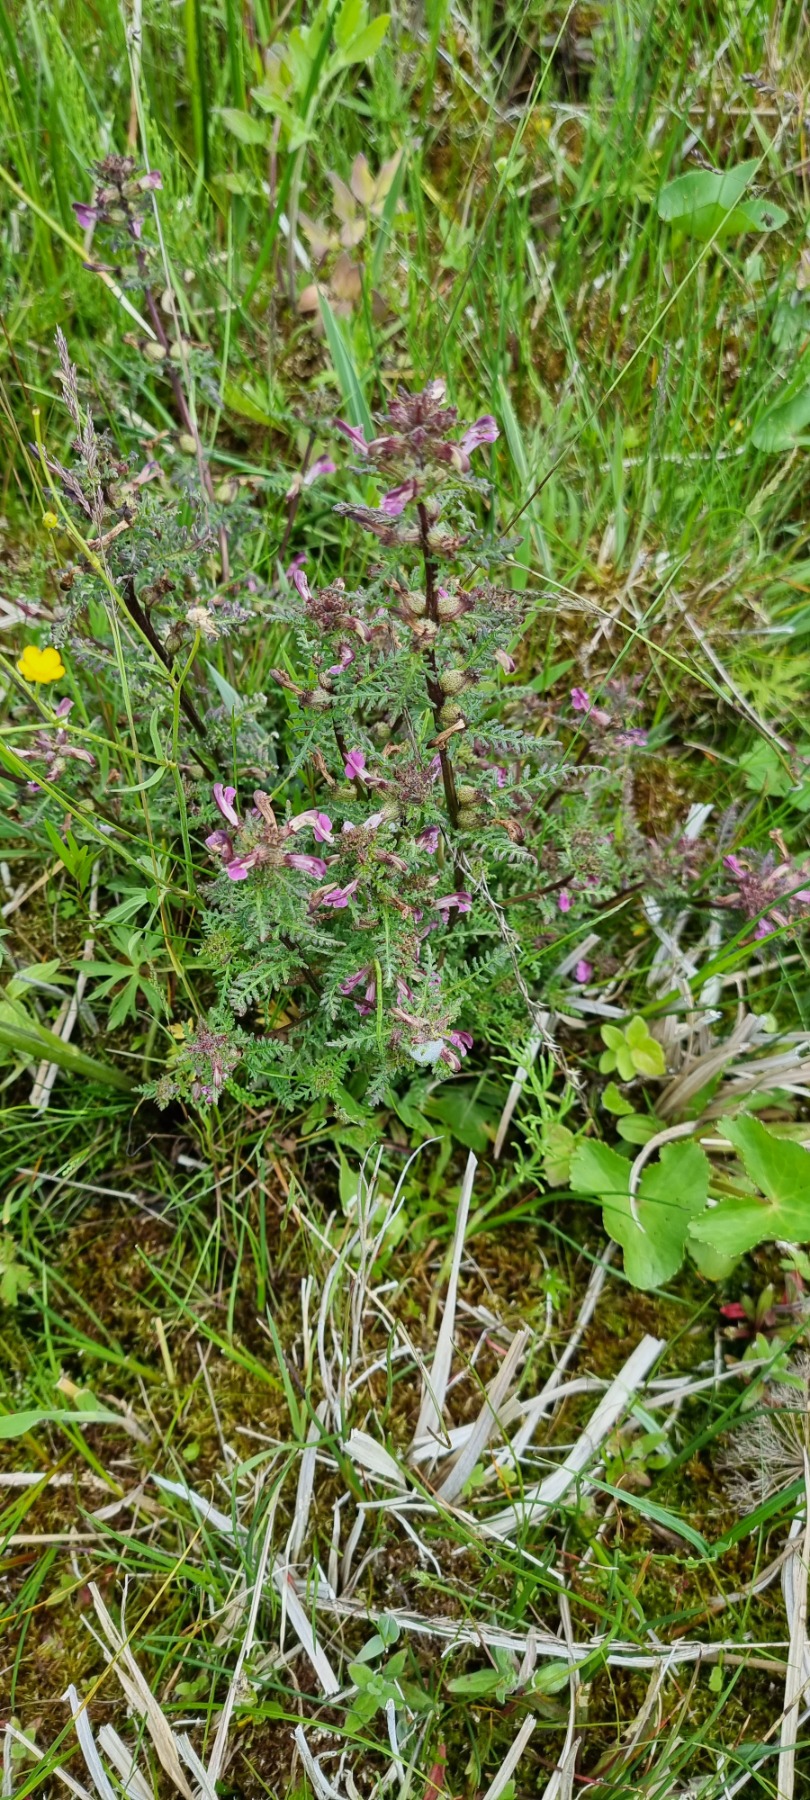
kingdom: Plantae
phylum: Tracheophyta
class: Magnoliopsida
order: Lamiales
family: Orobanchaceae
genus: Pedicularis
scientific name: Pedicularis palustris
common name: Eng-troldurt
